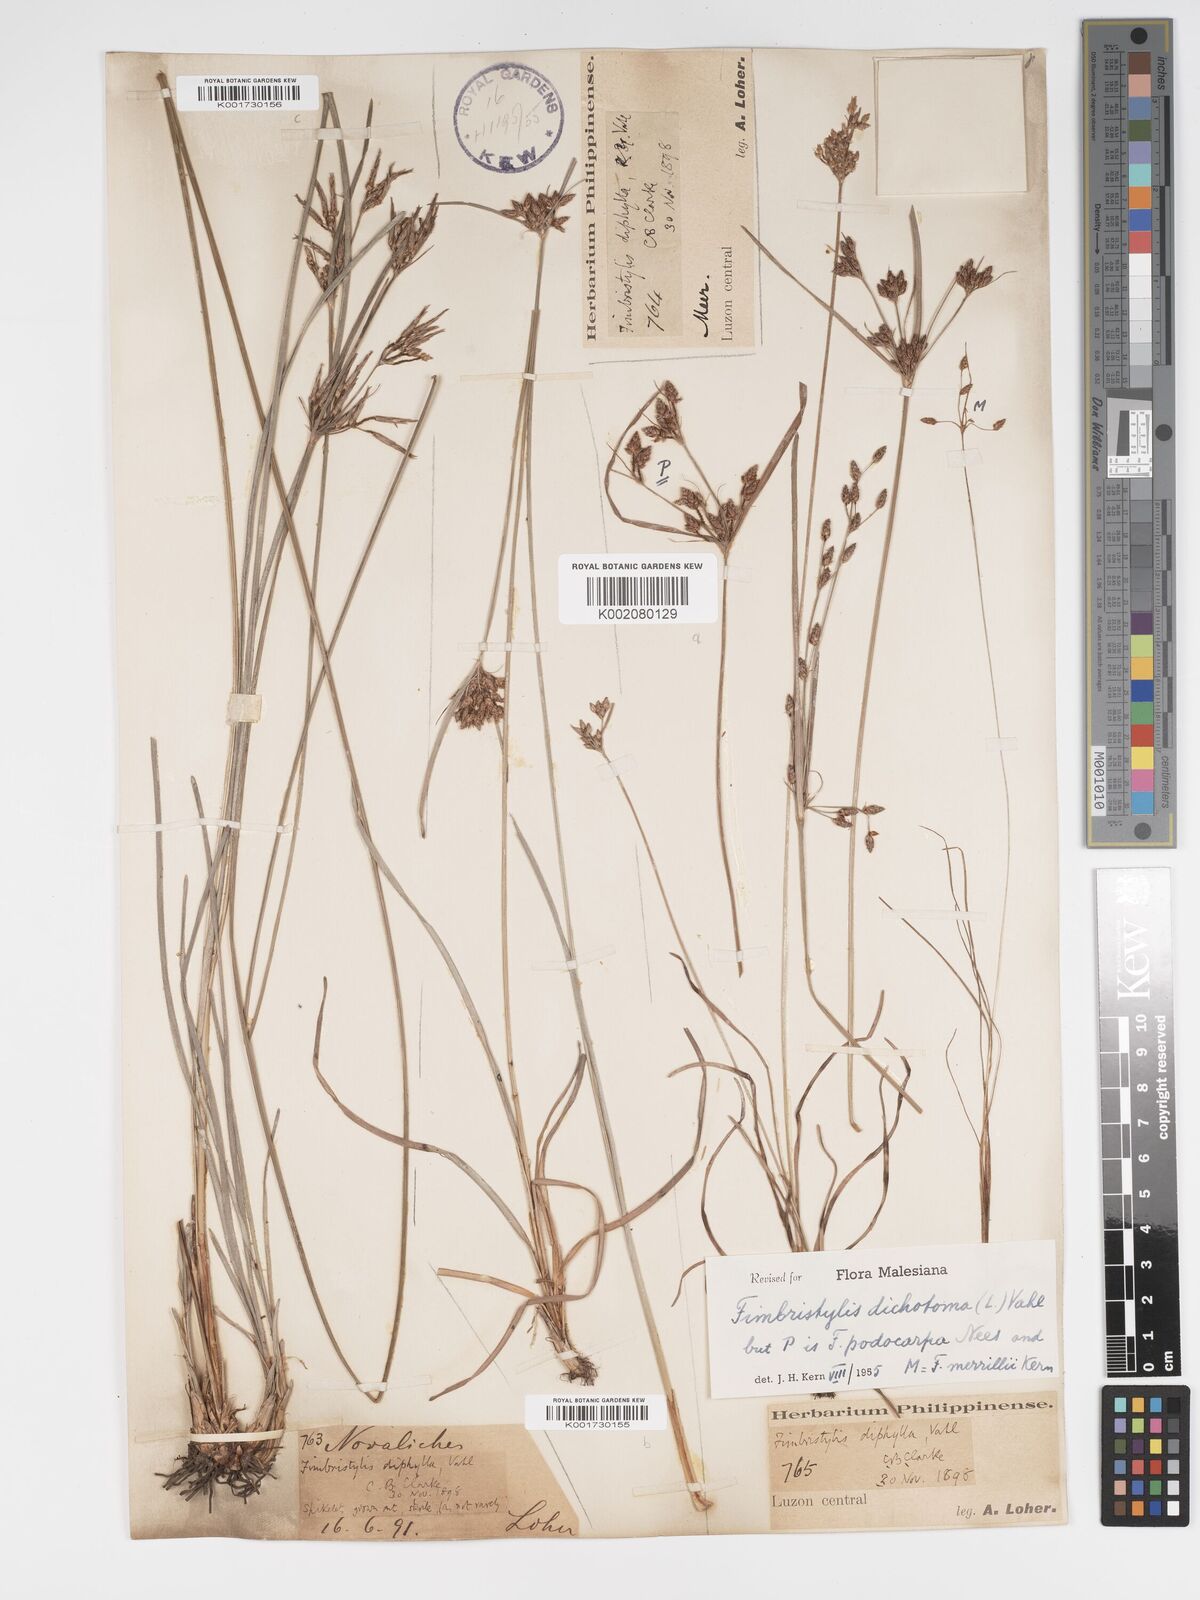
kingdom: Plantae
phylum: Tracheophyta
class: Liliopsida
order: Poales
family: Cyperaceae
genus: Fimbristylis
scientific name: Fimbristylis dichotoma
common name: Forked fimbry
